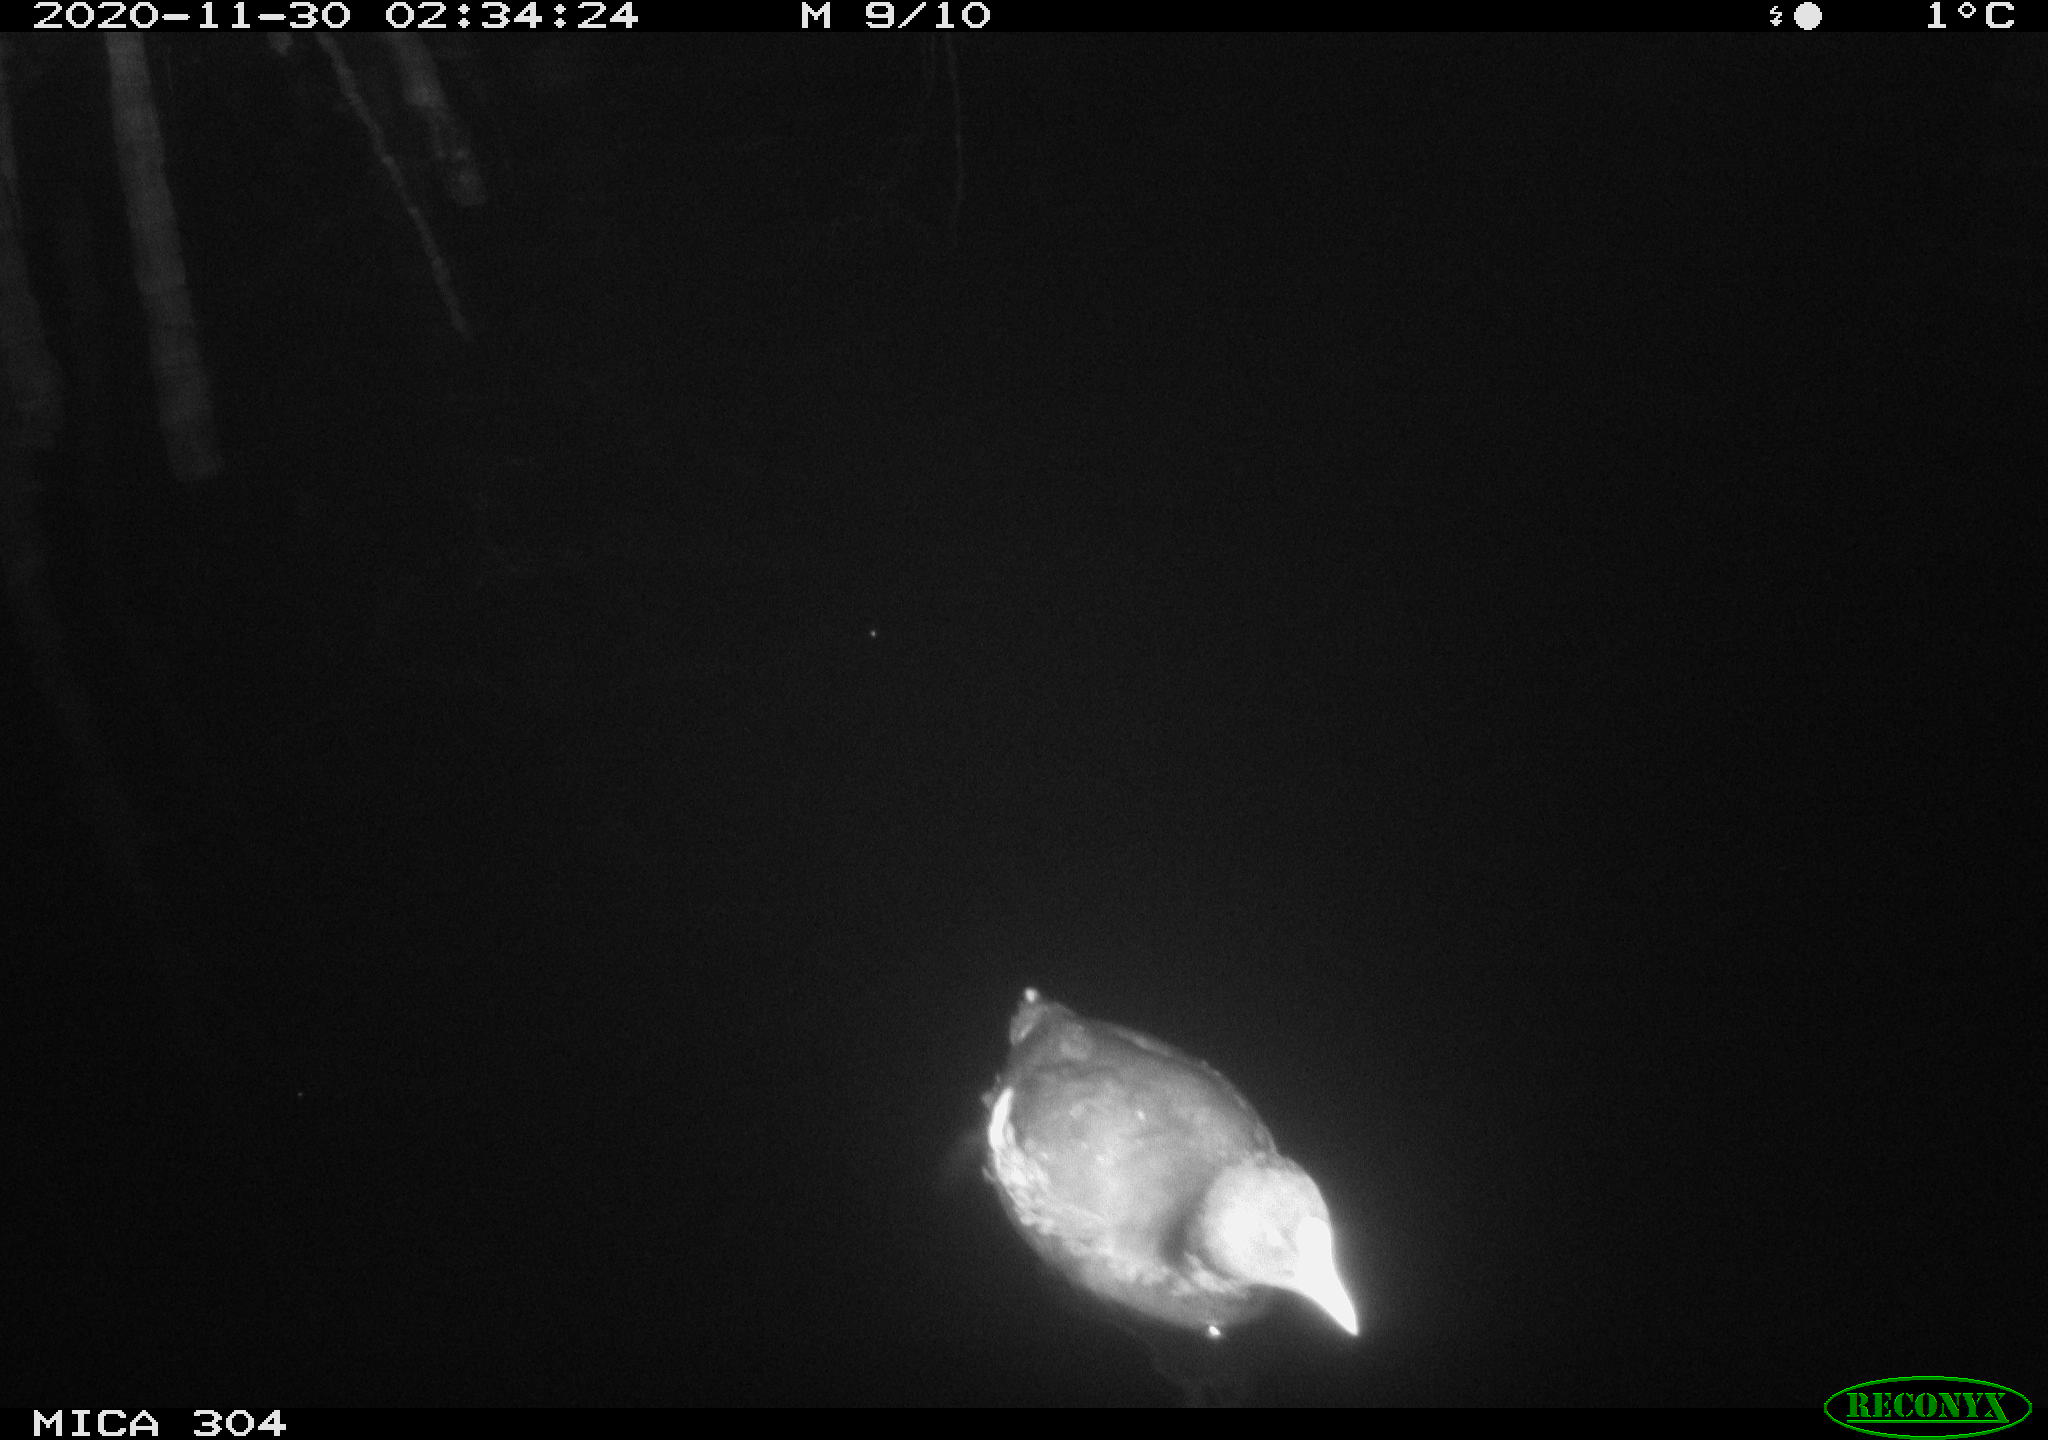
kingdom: Animalia
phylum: Chordata
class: Aves
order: Gruiformes
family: Rallidae
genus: Fulica
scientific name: Fulica atra
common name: Eurasian coot
